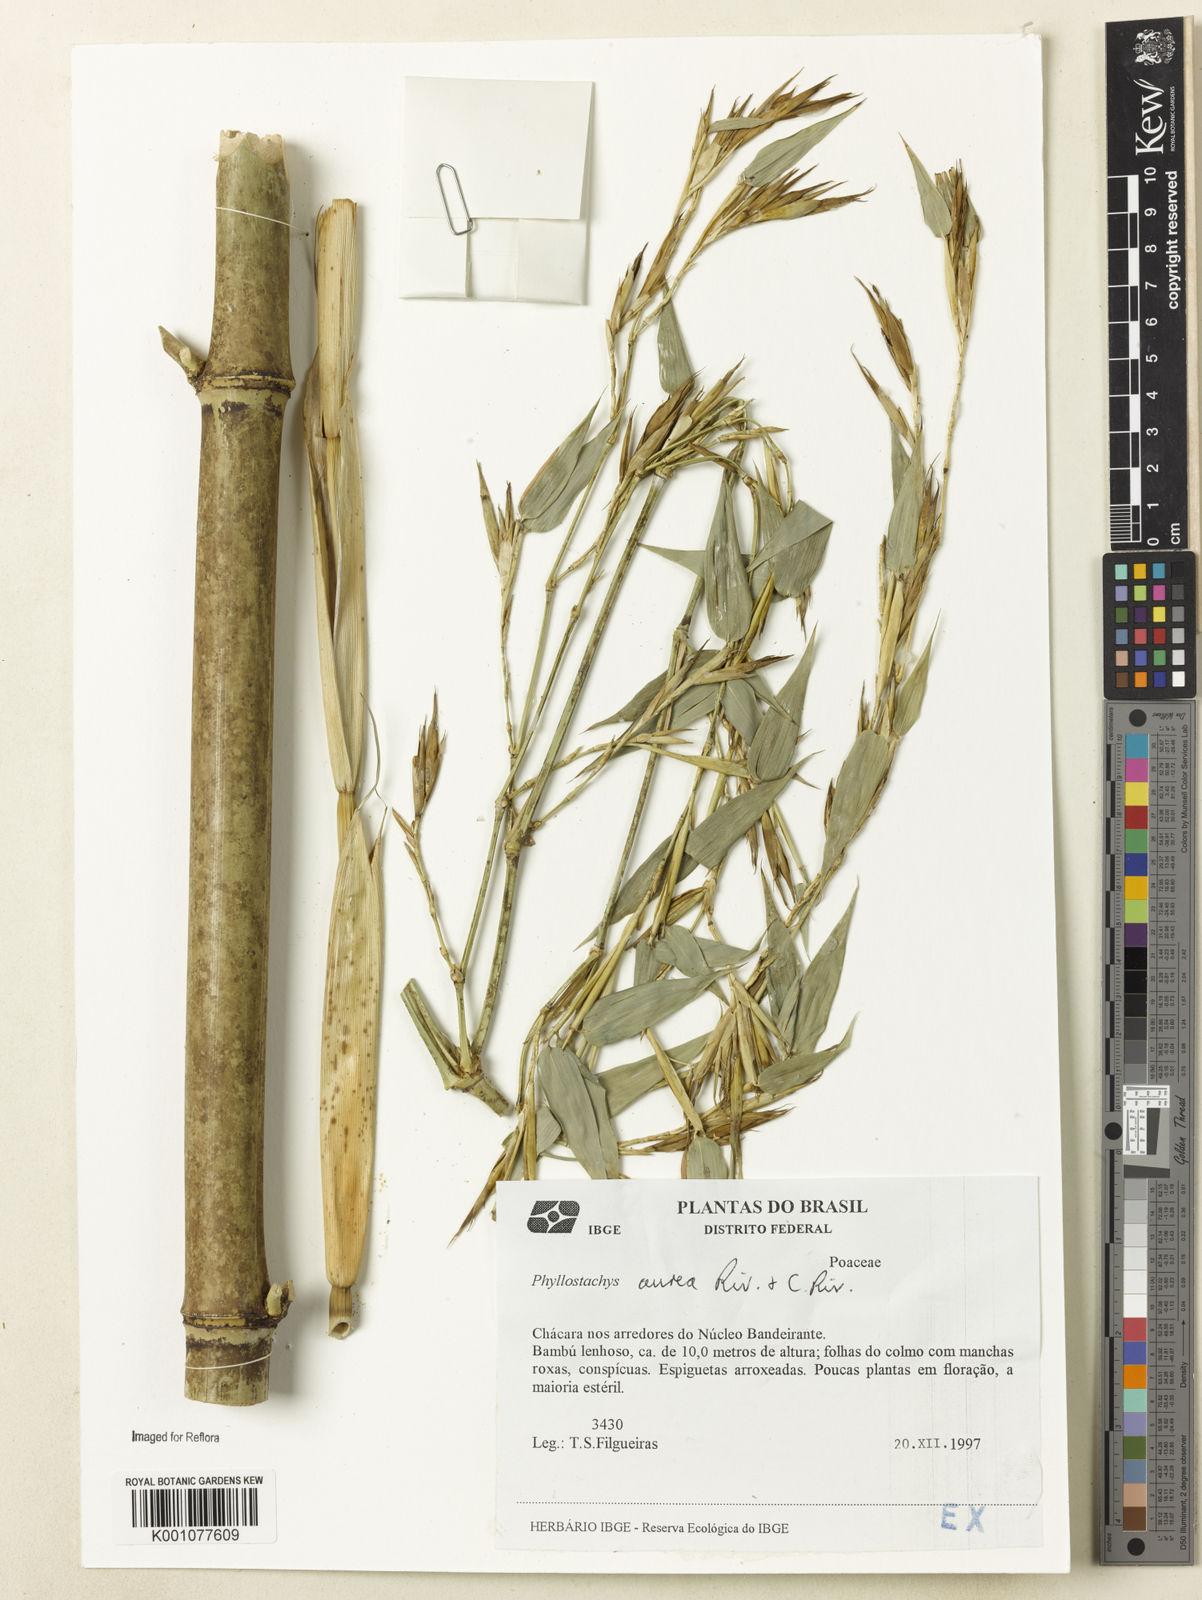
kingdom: Plantae
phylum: Tracheophyta
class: Liliopsida
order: Poales
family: Poaceae
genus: Phyllostachys
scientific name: Phyllostachys
